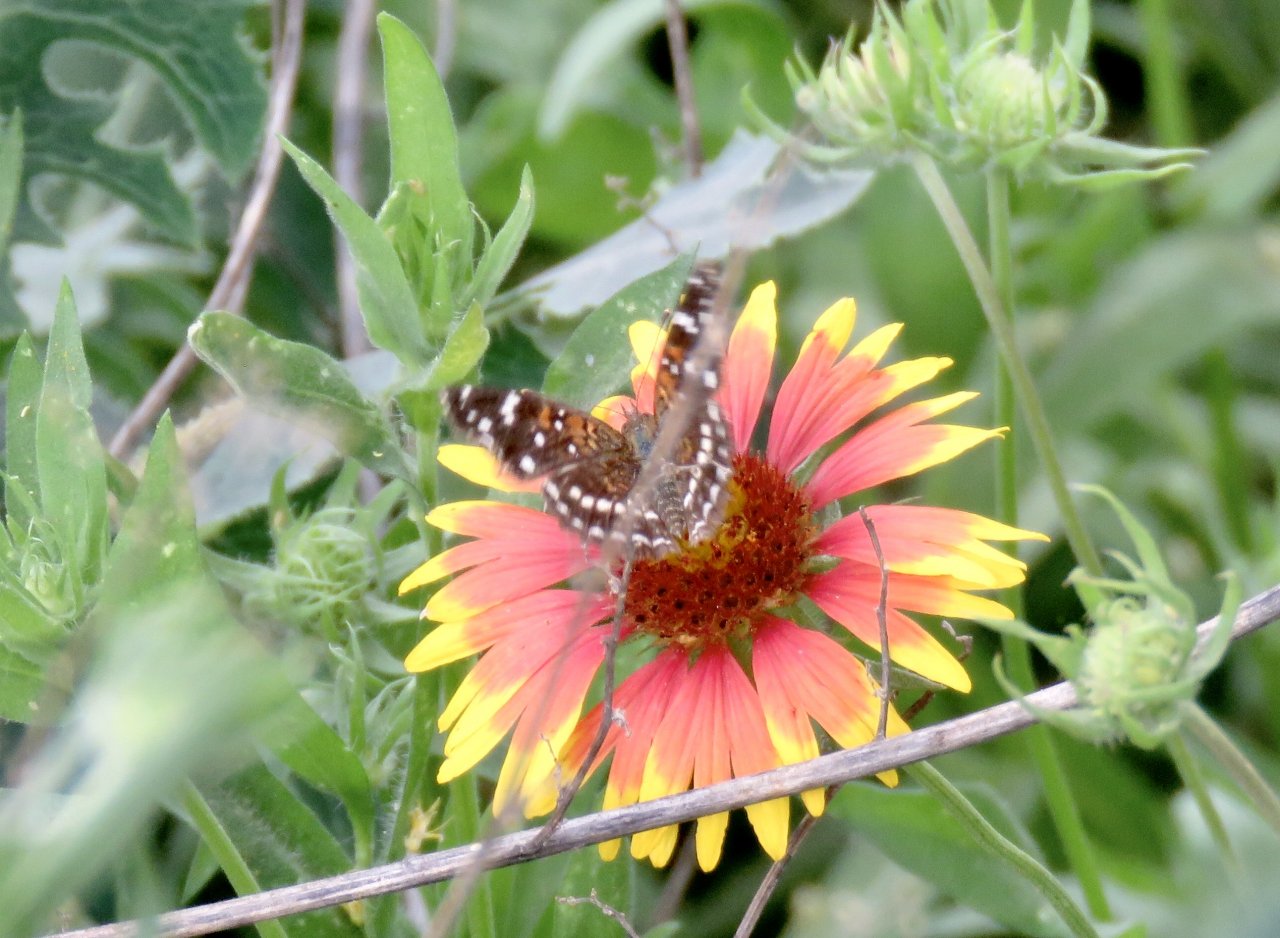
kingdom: Animalia
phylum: Arthropoda
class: Insecta
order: Lepidoptera
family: Nymphalidae
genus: Anthanassa
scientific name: Anthanassa texana
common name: Texan Crescent
